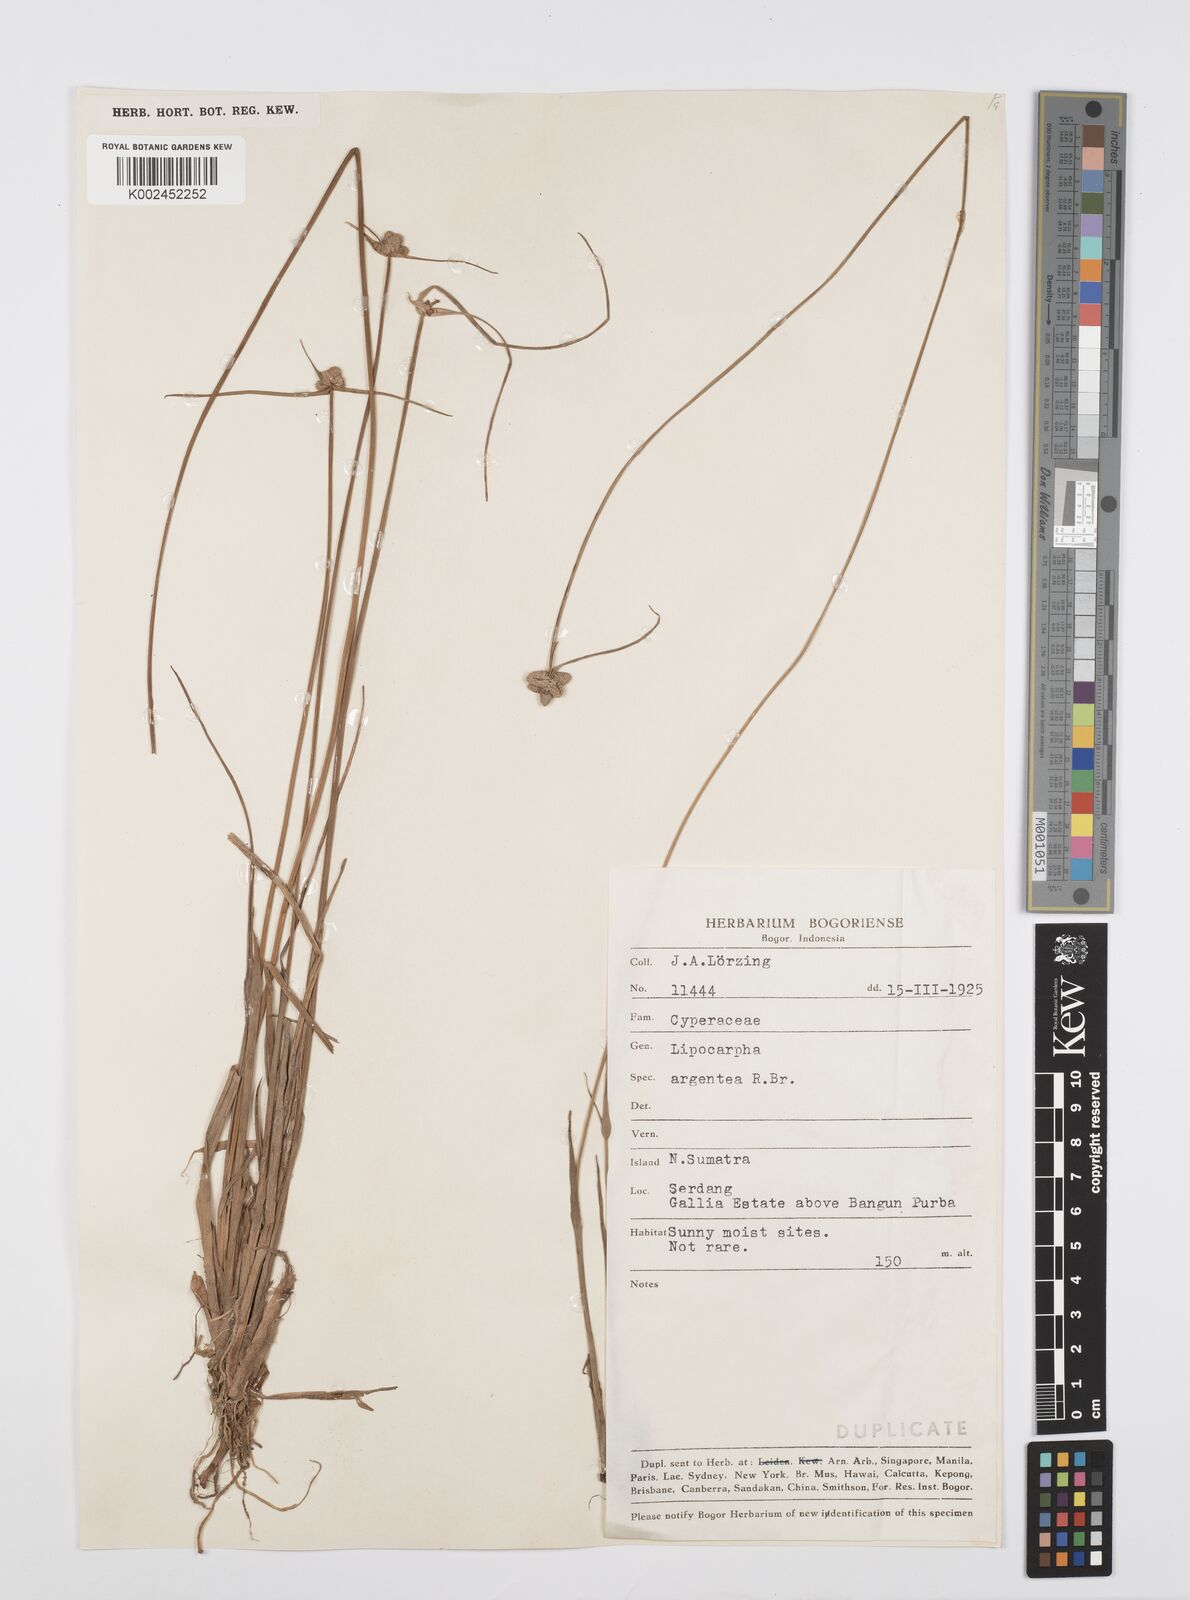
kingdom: Plantae
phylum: Tracheophyta
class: Liliopsida
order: Poales
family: Cyperaceae
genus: Cyperus
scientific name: Cyperus
